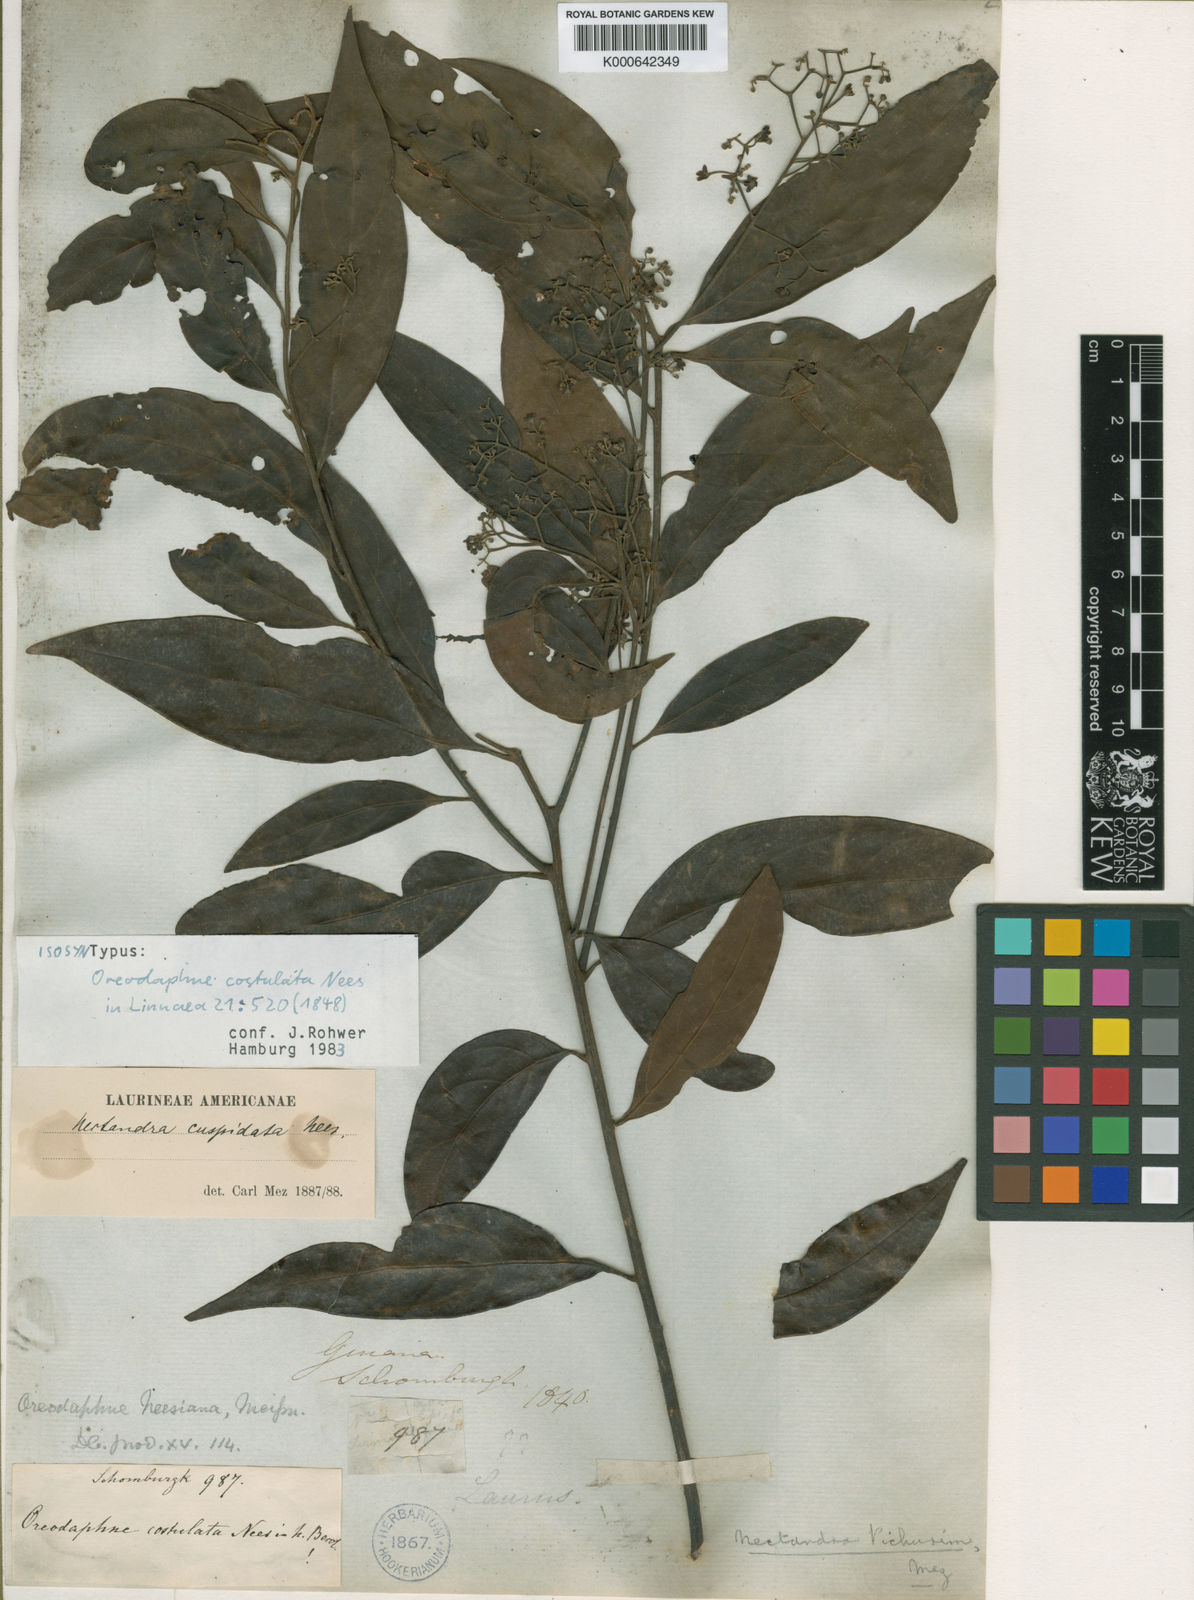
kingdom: Plantae
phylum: Tracheophyta
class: Magnoliopsida
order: Laurales
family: Lauraceae
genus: Nectandra
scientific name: Nectandra cuspidata
